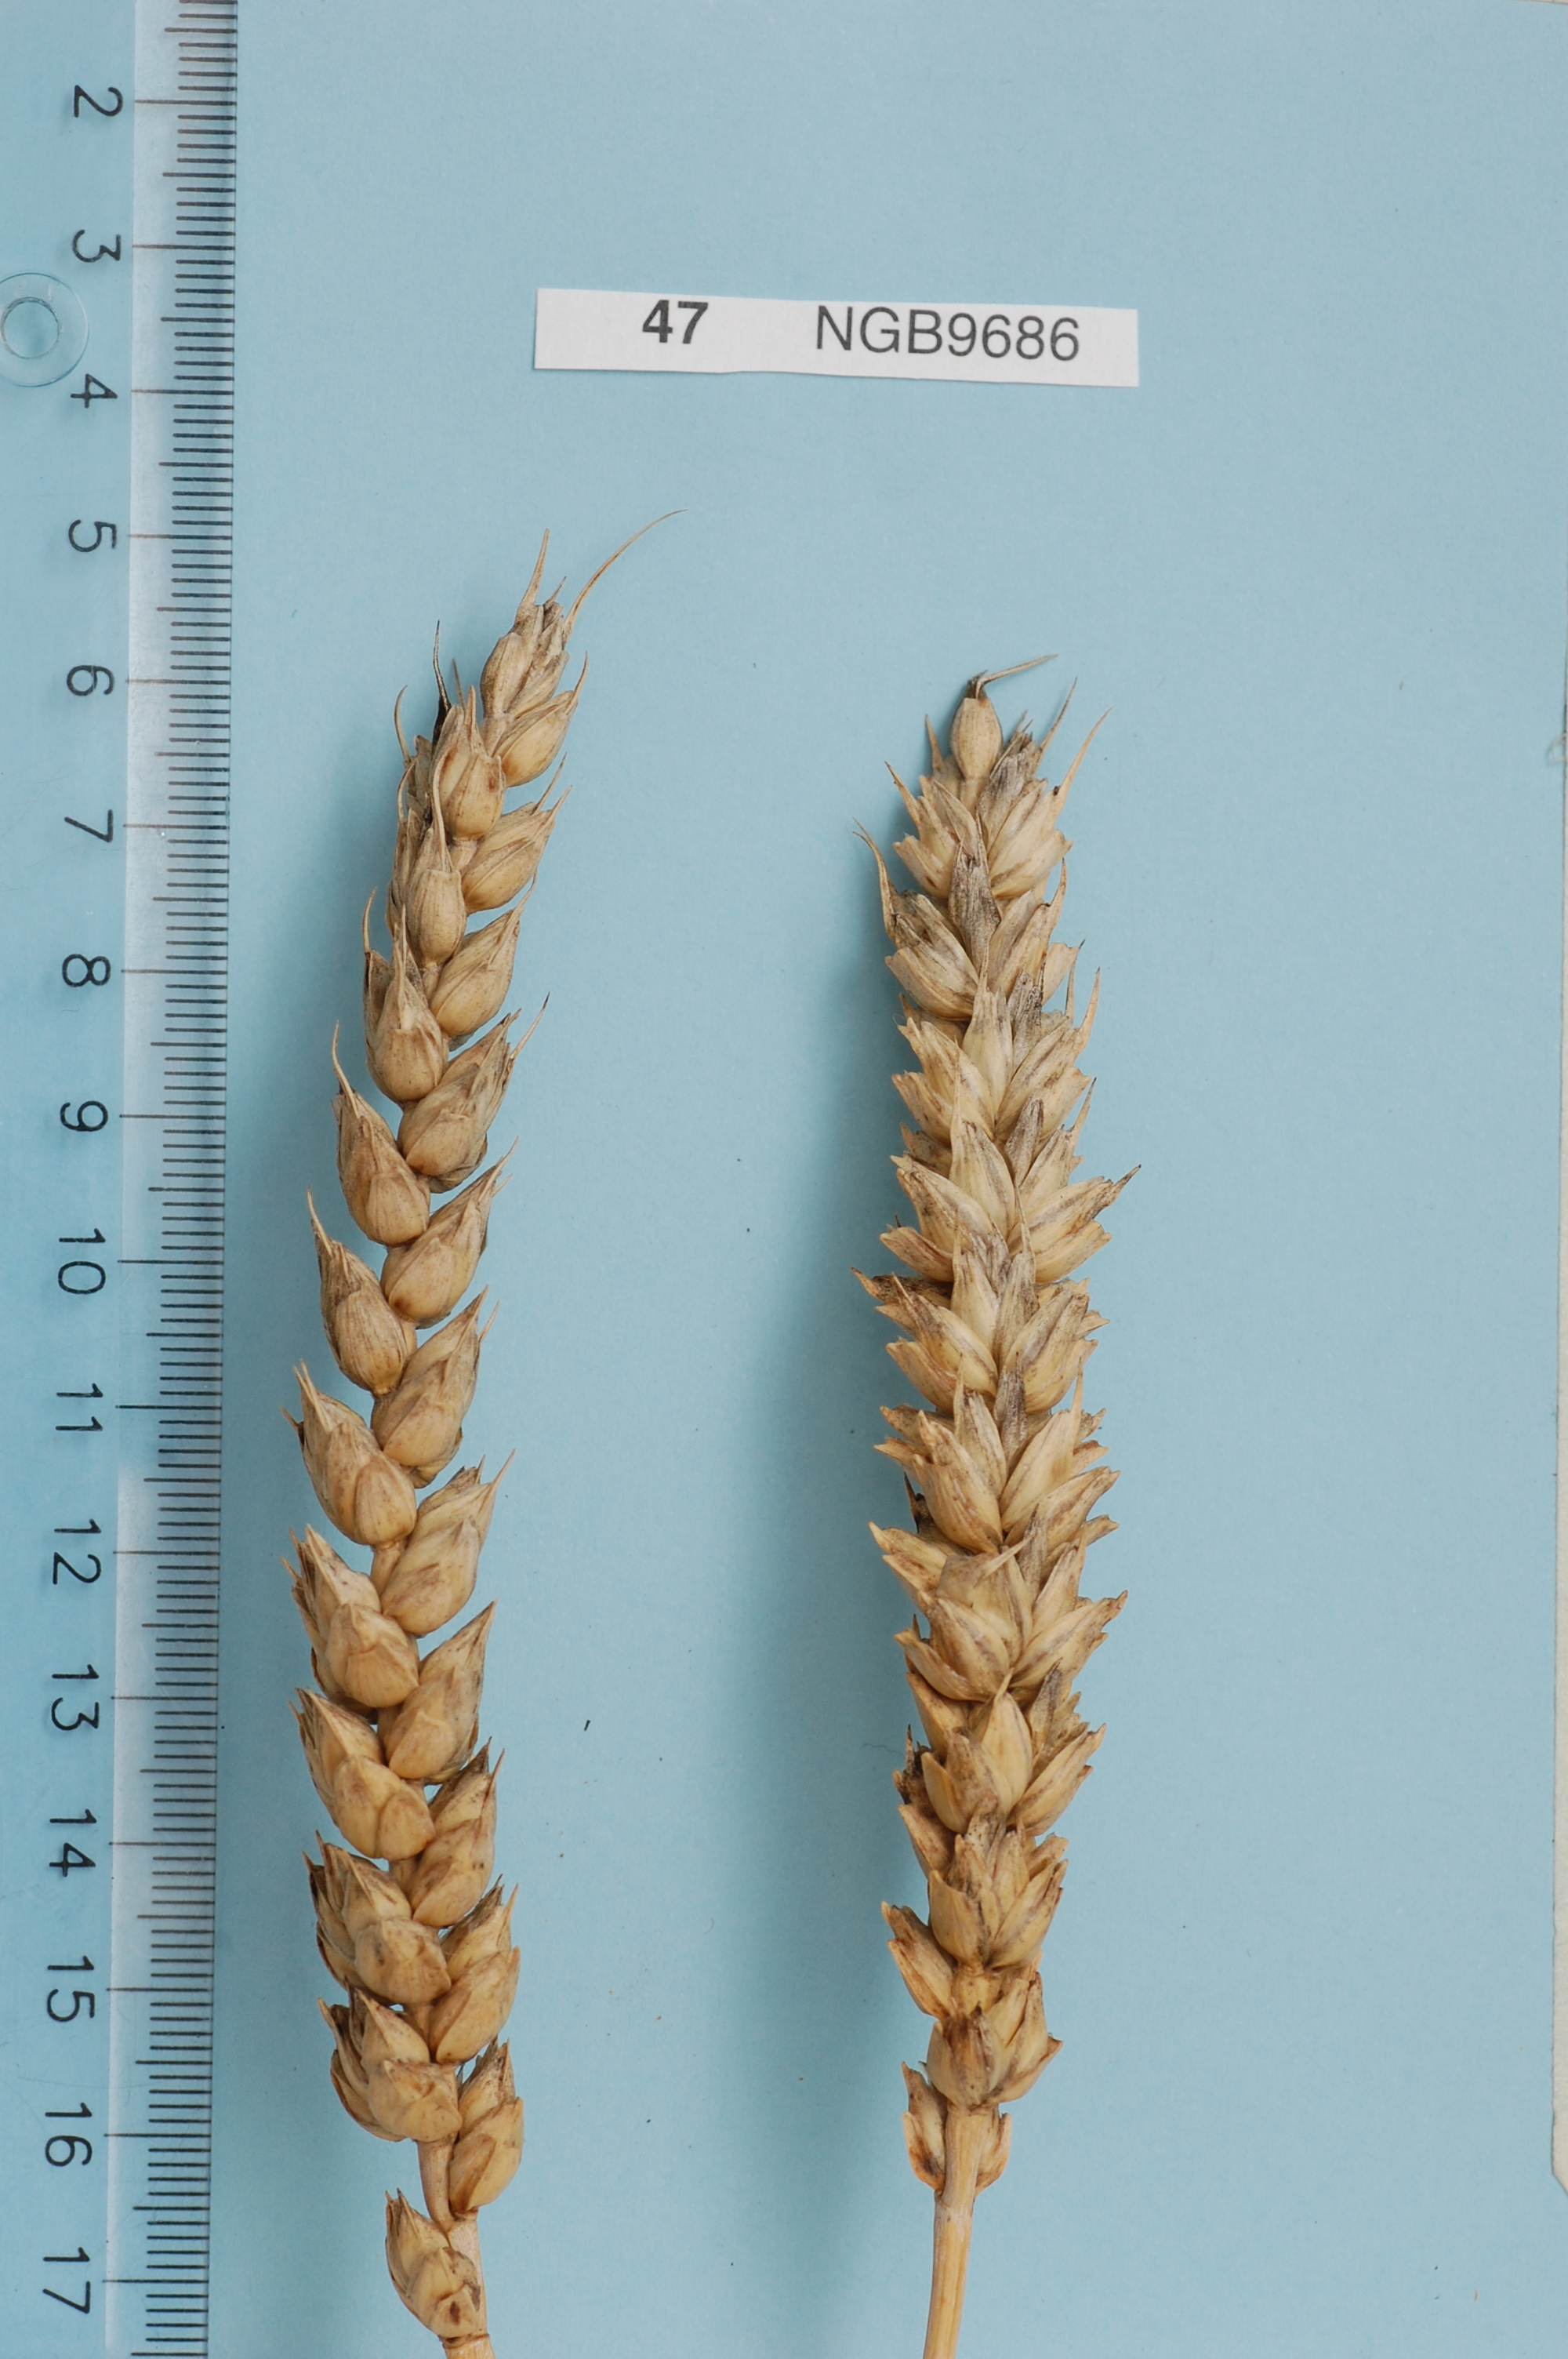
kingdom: Plantae
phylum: Tracheophyta
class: Liliopsida
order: Poales
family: Poaceae
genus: Triticum
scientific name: Triticum aestivum
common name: Common wheat
